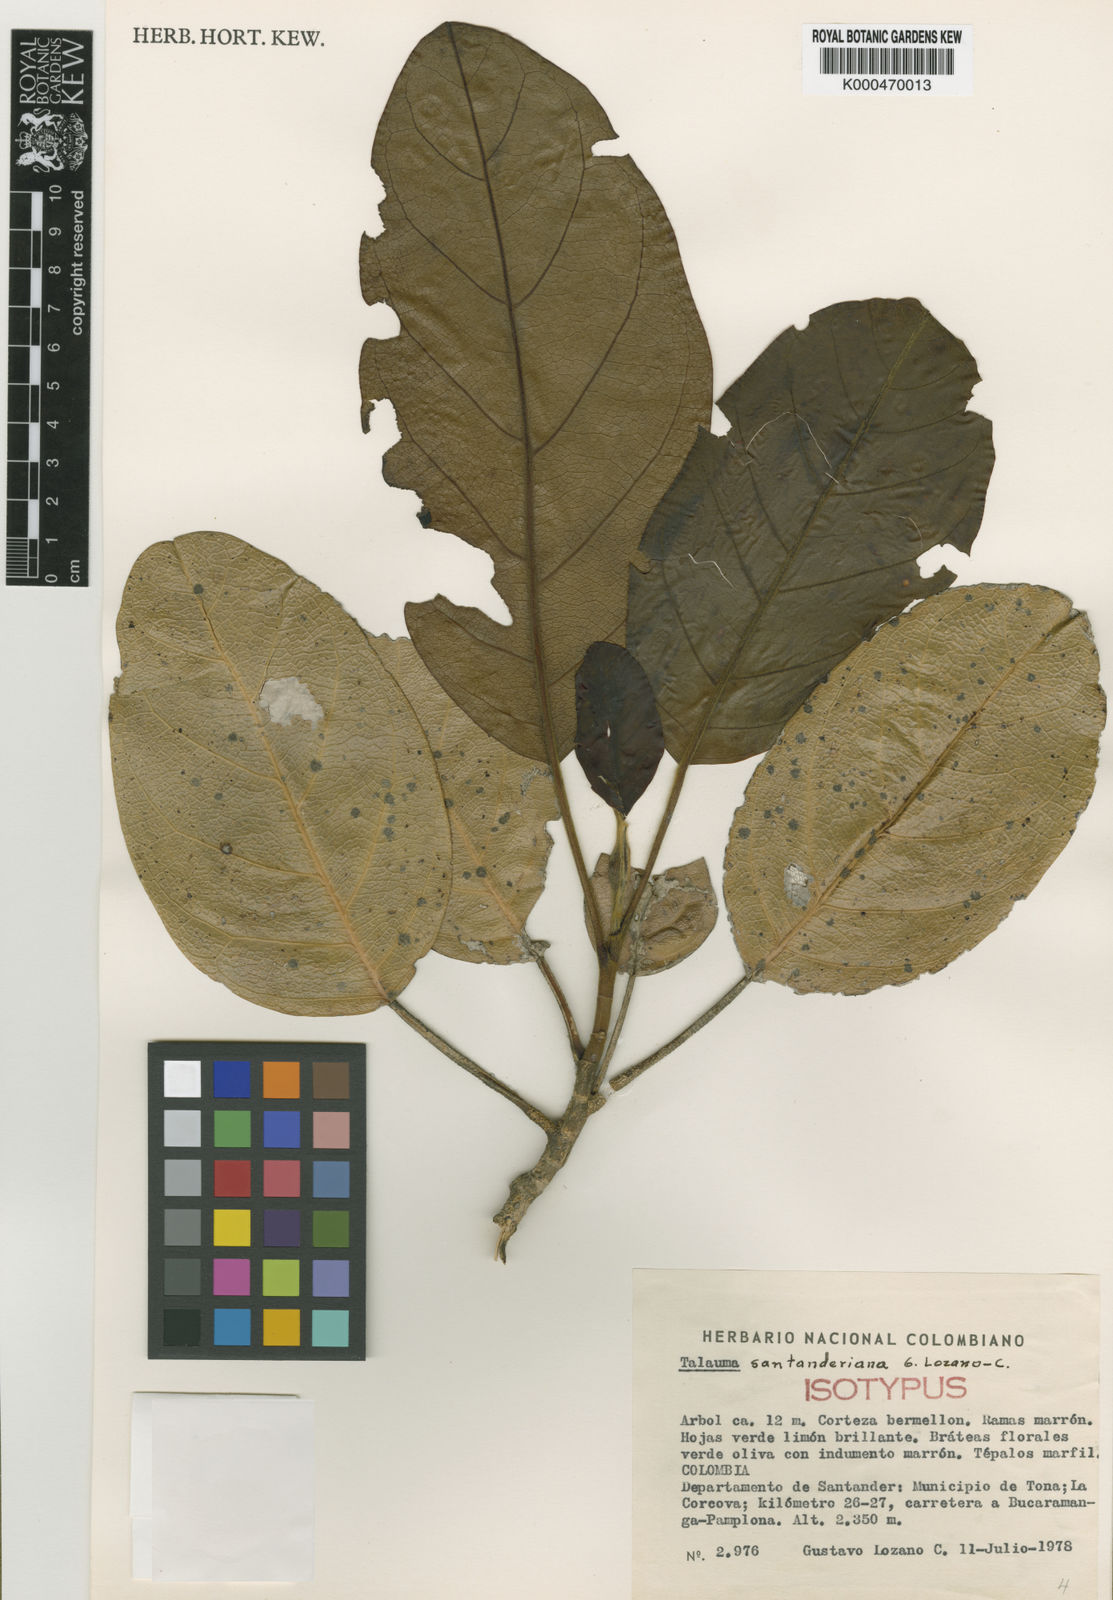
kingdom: Plantae
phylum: Tracheophyta
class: Magnoliopsida
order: Magnoliales
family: Magnoliaceae
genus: Magnolia
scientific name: Magnolia santanderiana
